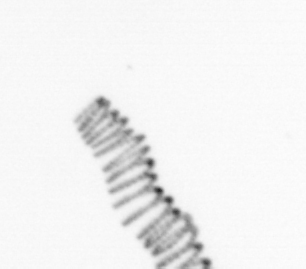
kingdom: Chromista
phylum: Ochrophyta
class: Bacillariophyceae
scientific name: Bacillariophyceae
